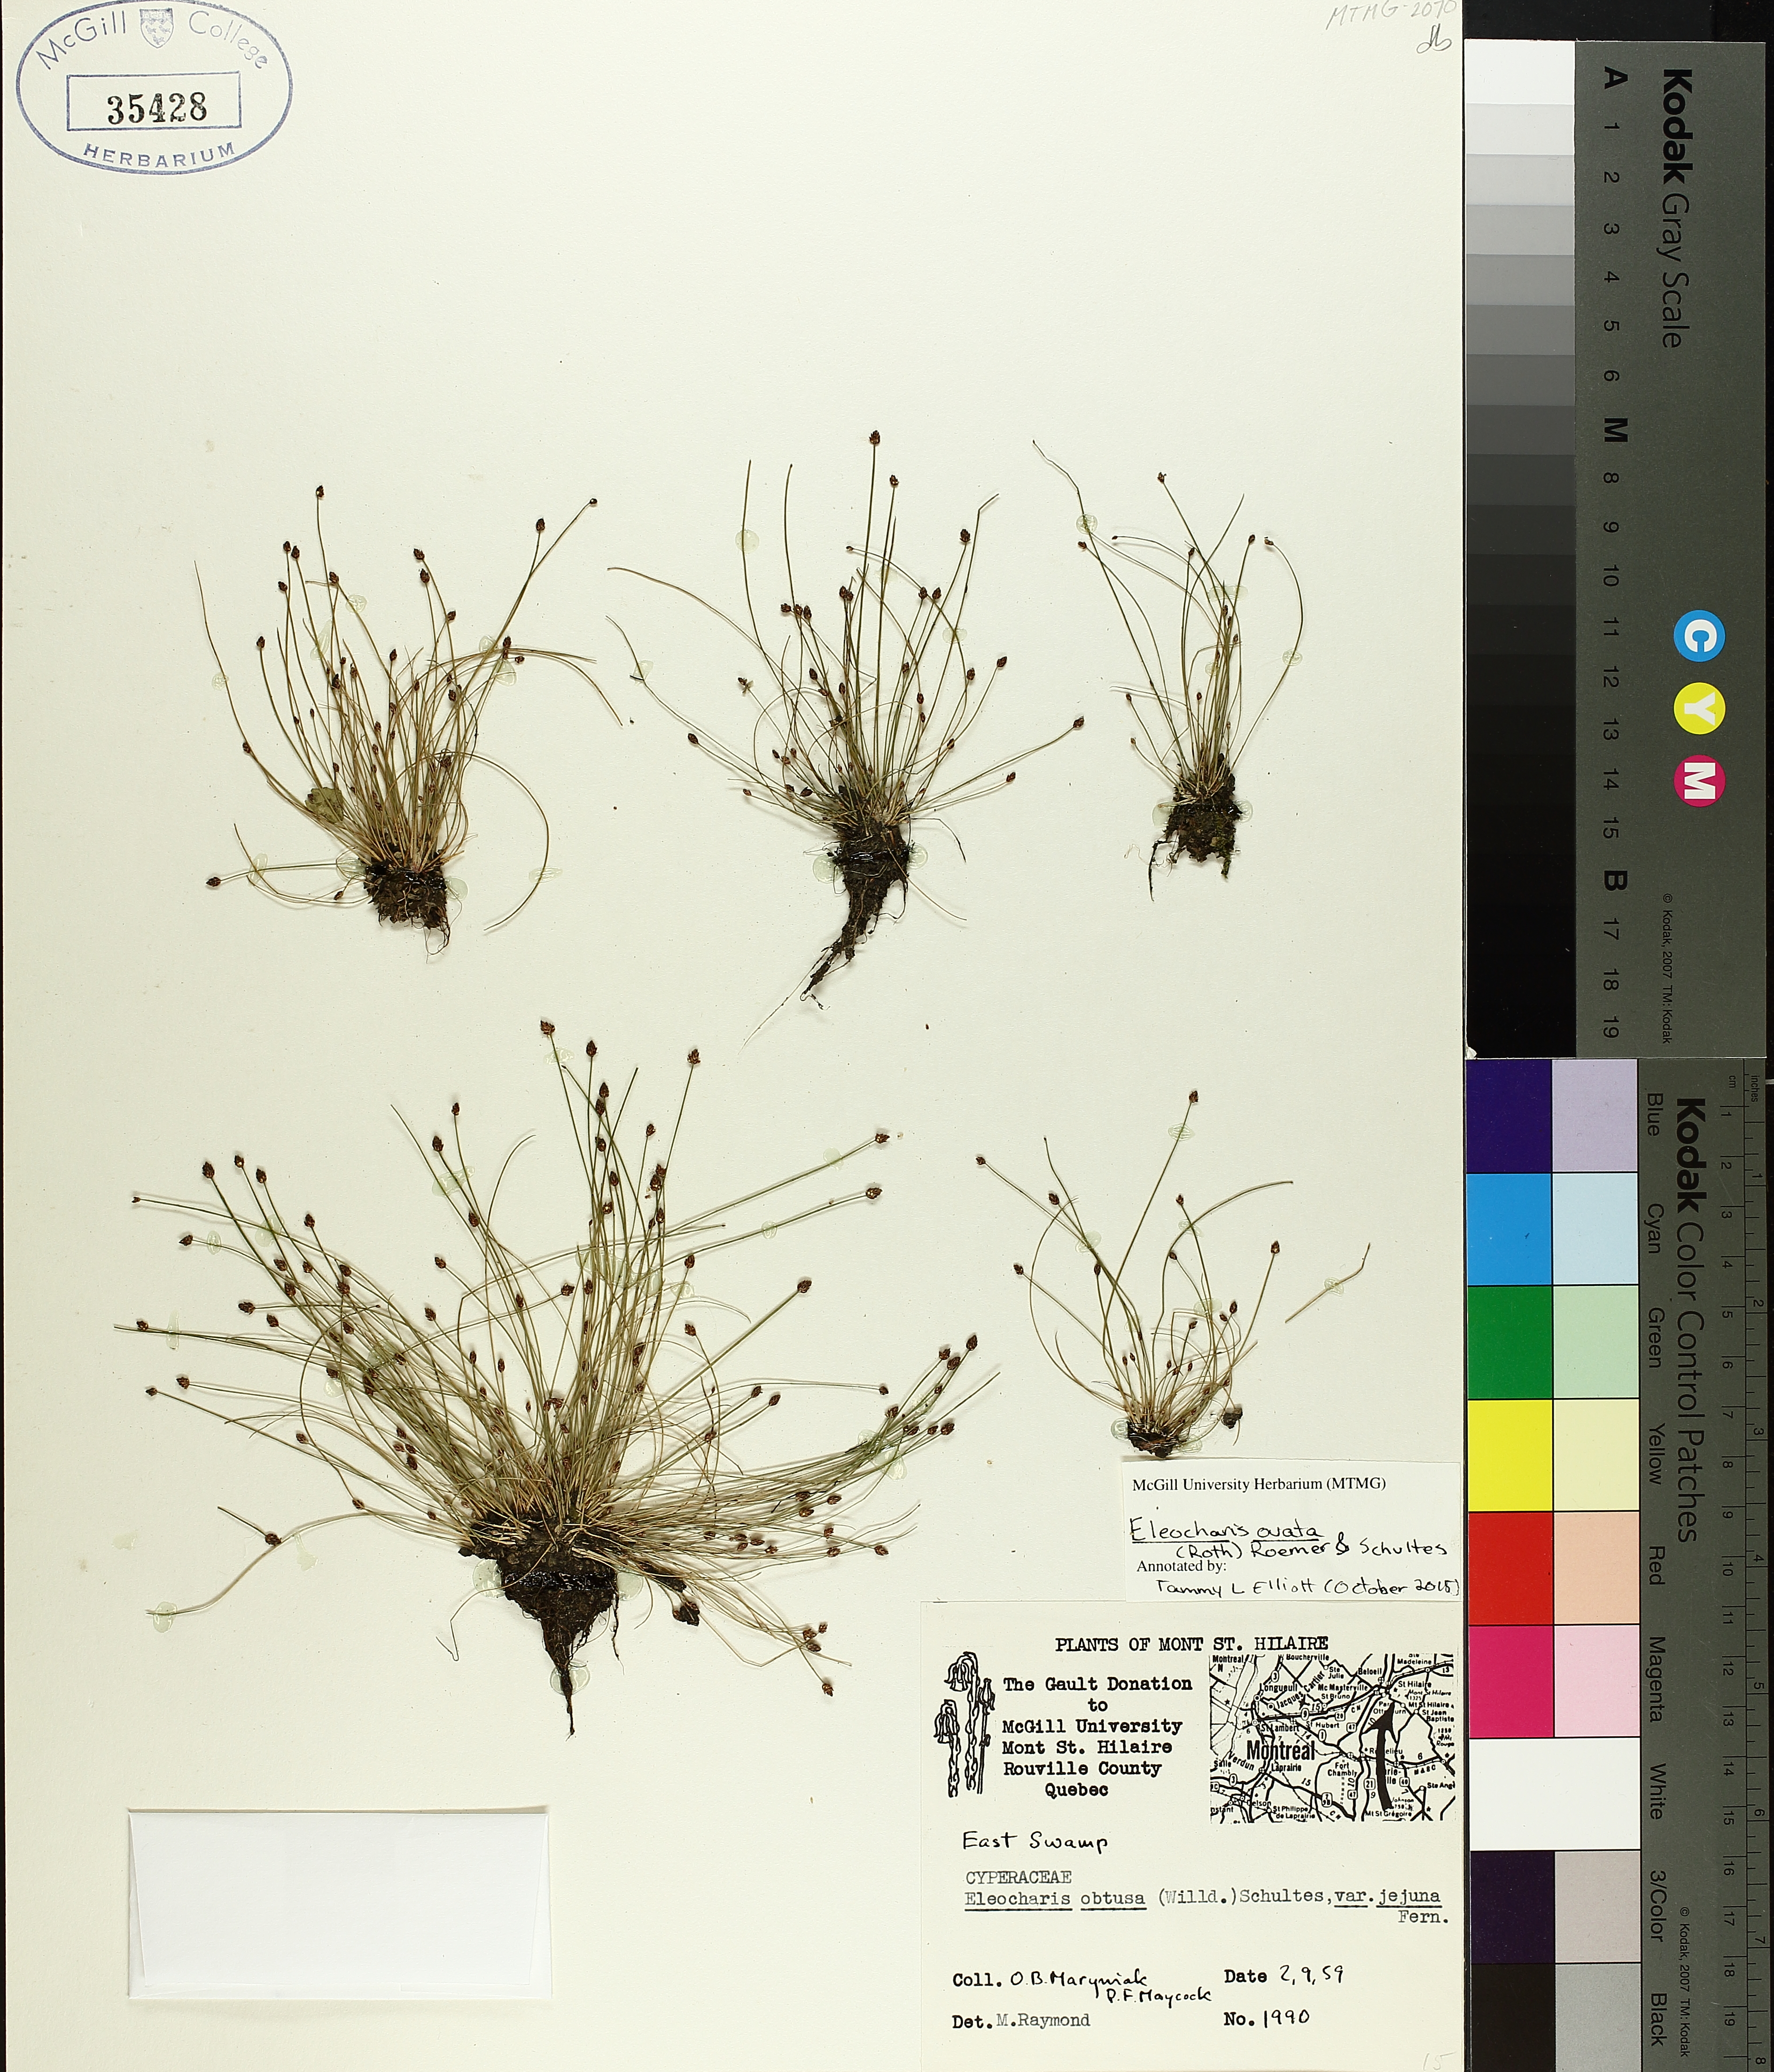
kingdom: Plantae
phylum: Tracheophyta
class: Liliopsida
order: Poales
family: Cyperaceae
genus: Eleocharis
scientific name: Eleocharis obtusa
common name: Blunt spikerush
